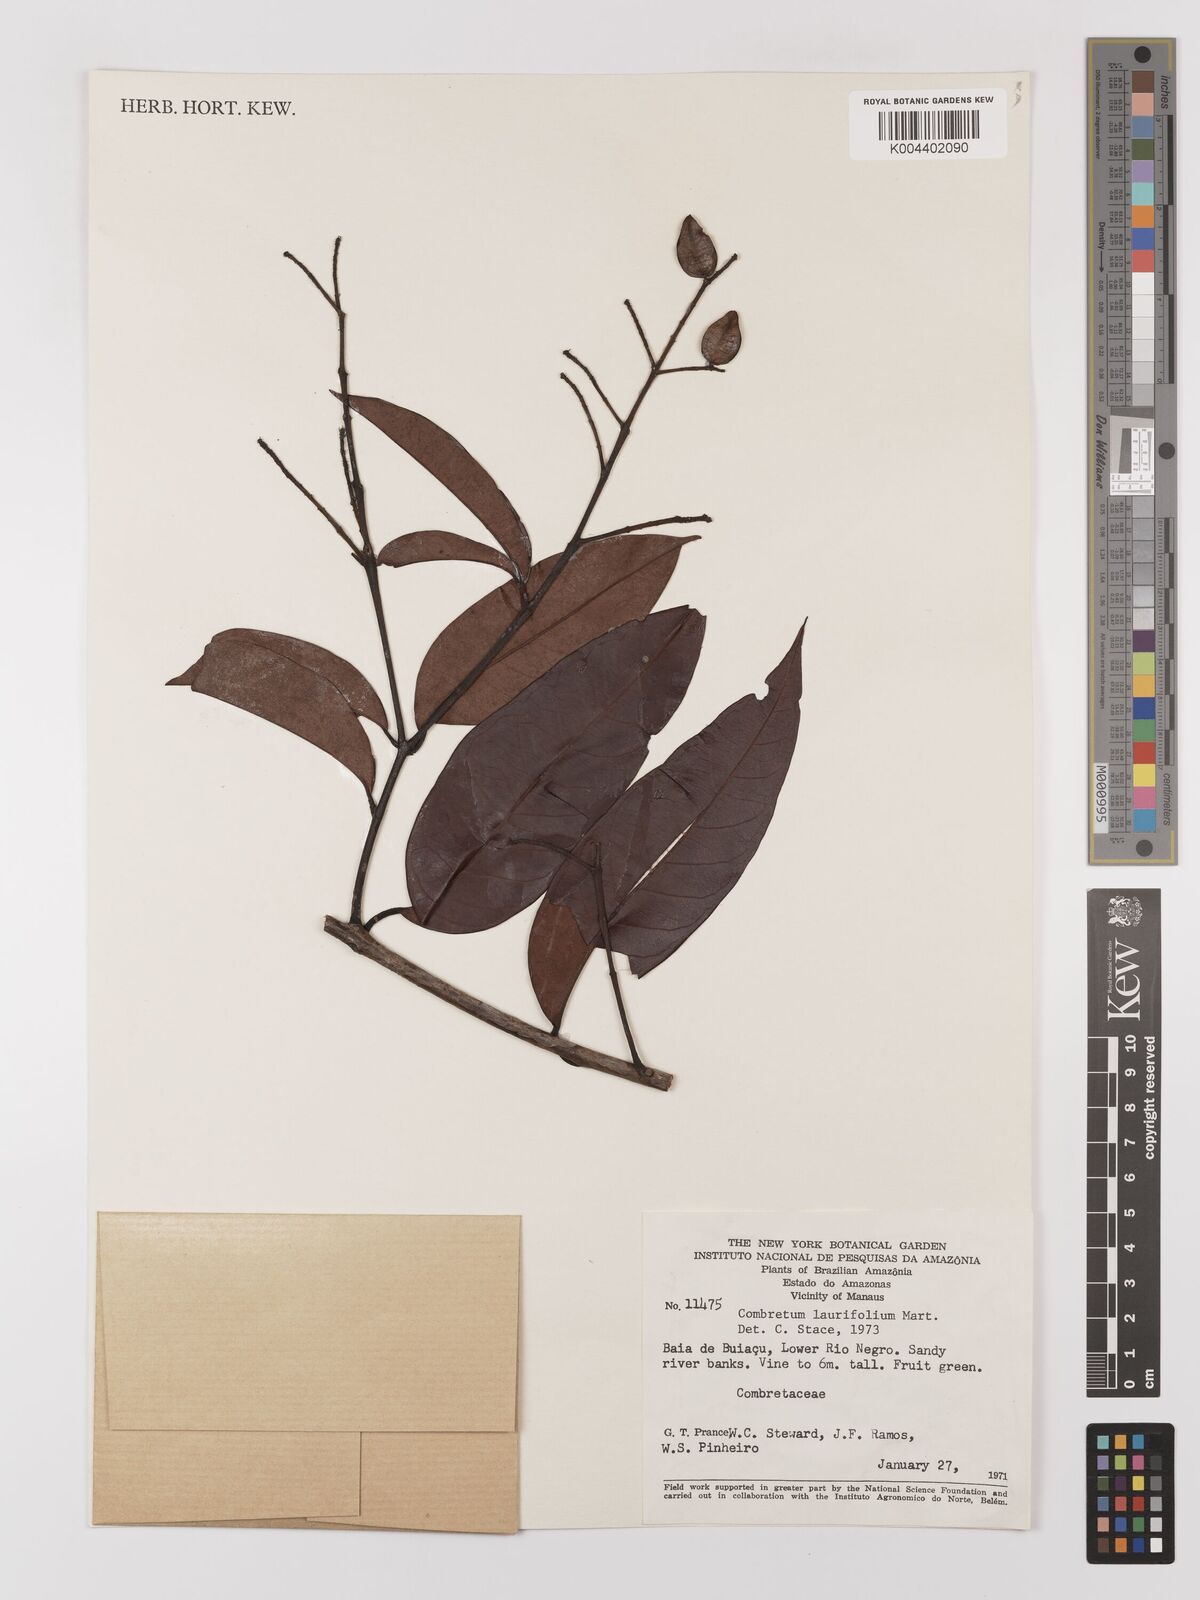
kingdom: Plantae
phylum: Tracheophyta
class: Magnoliopsida
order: Myrtales
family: Combretaceae
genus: Combretum
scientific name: Combretum
